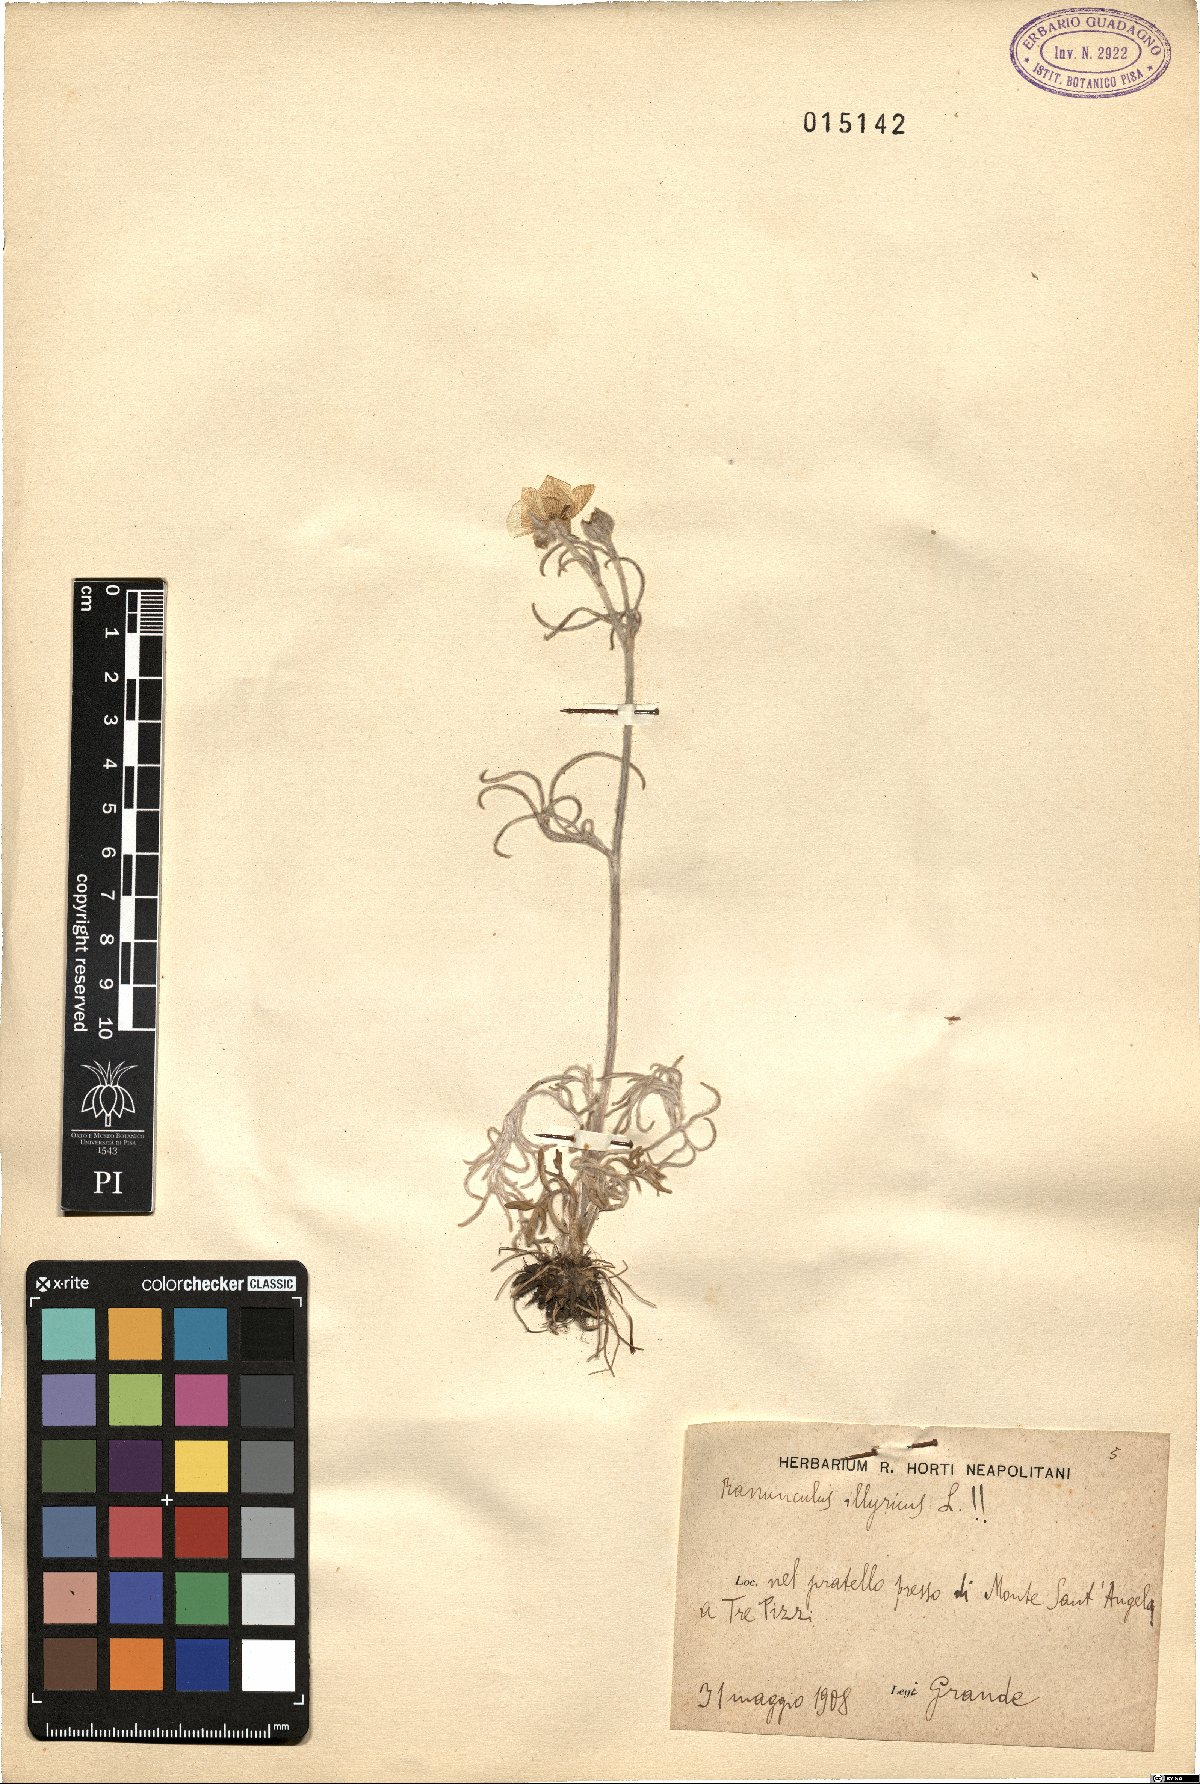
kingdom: Plantae
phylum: Tracheophyta
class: Magnoliopsida
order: Ranunculales
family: Ranunculaceae
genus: Ranunculus
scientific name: Ranunculus illyricus
